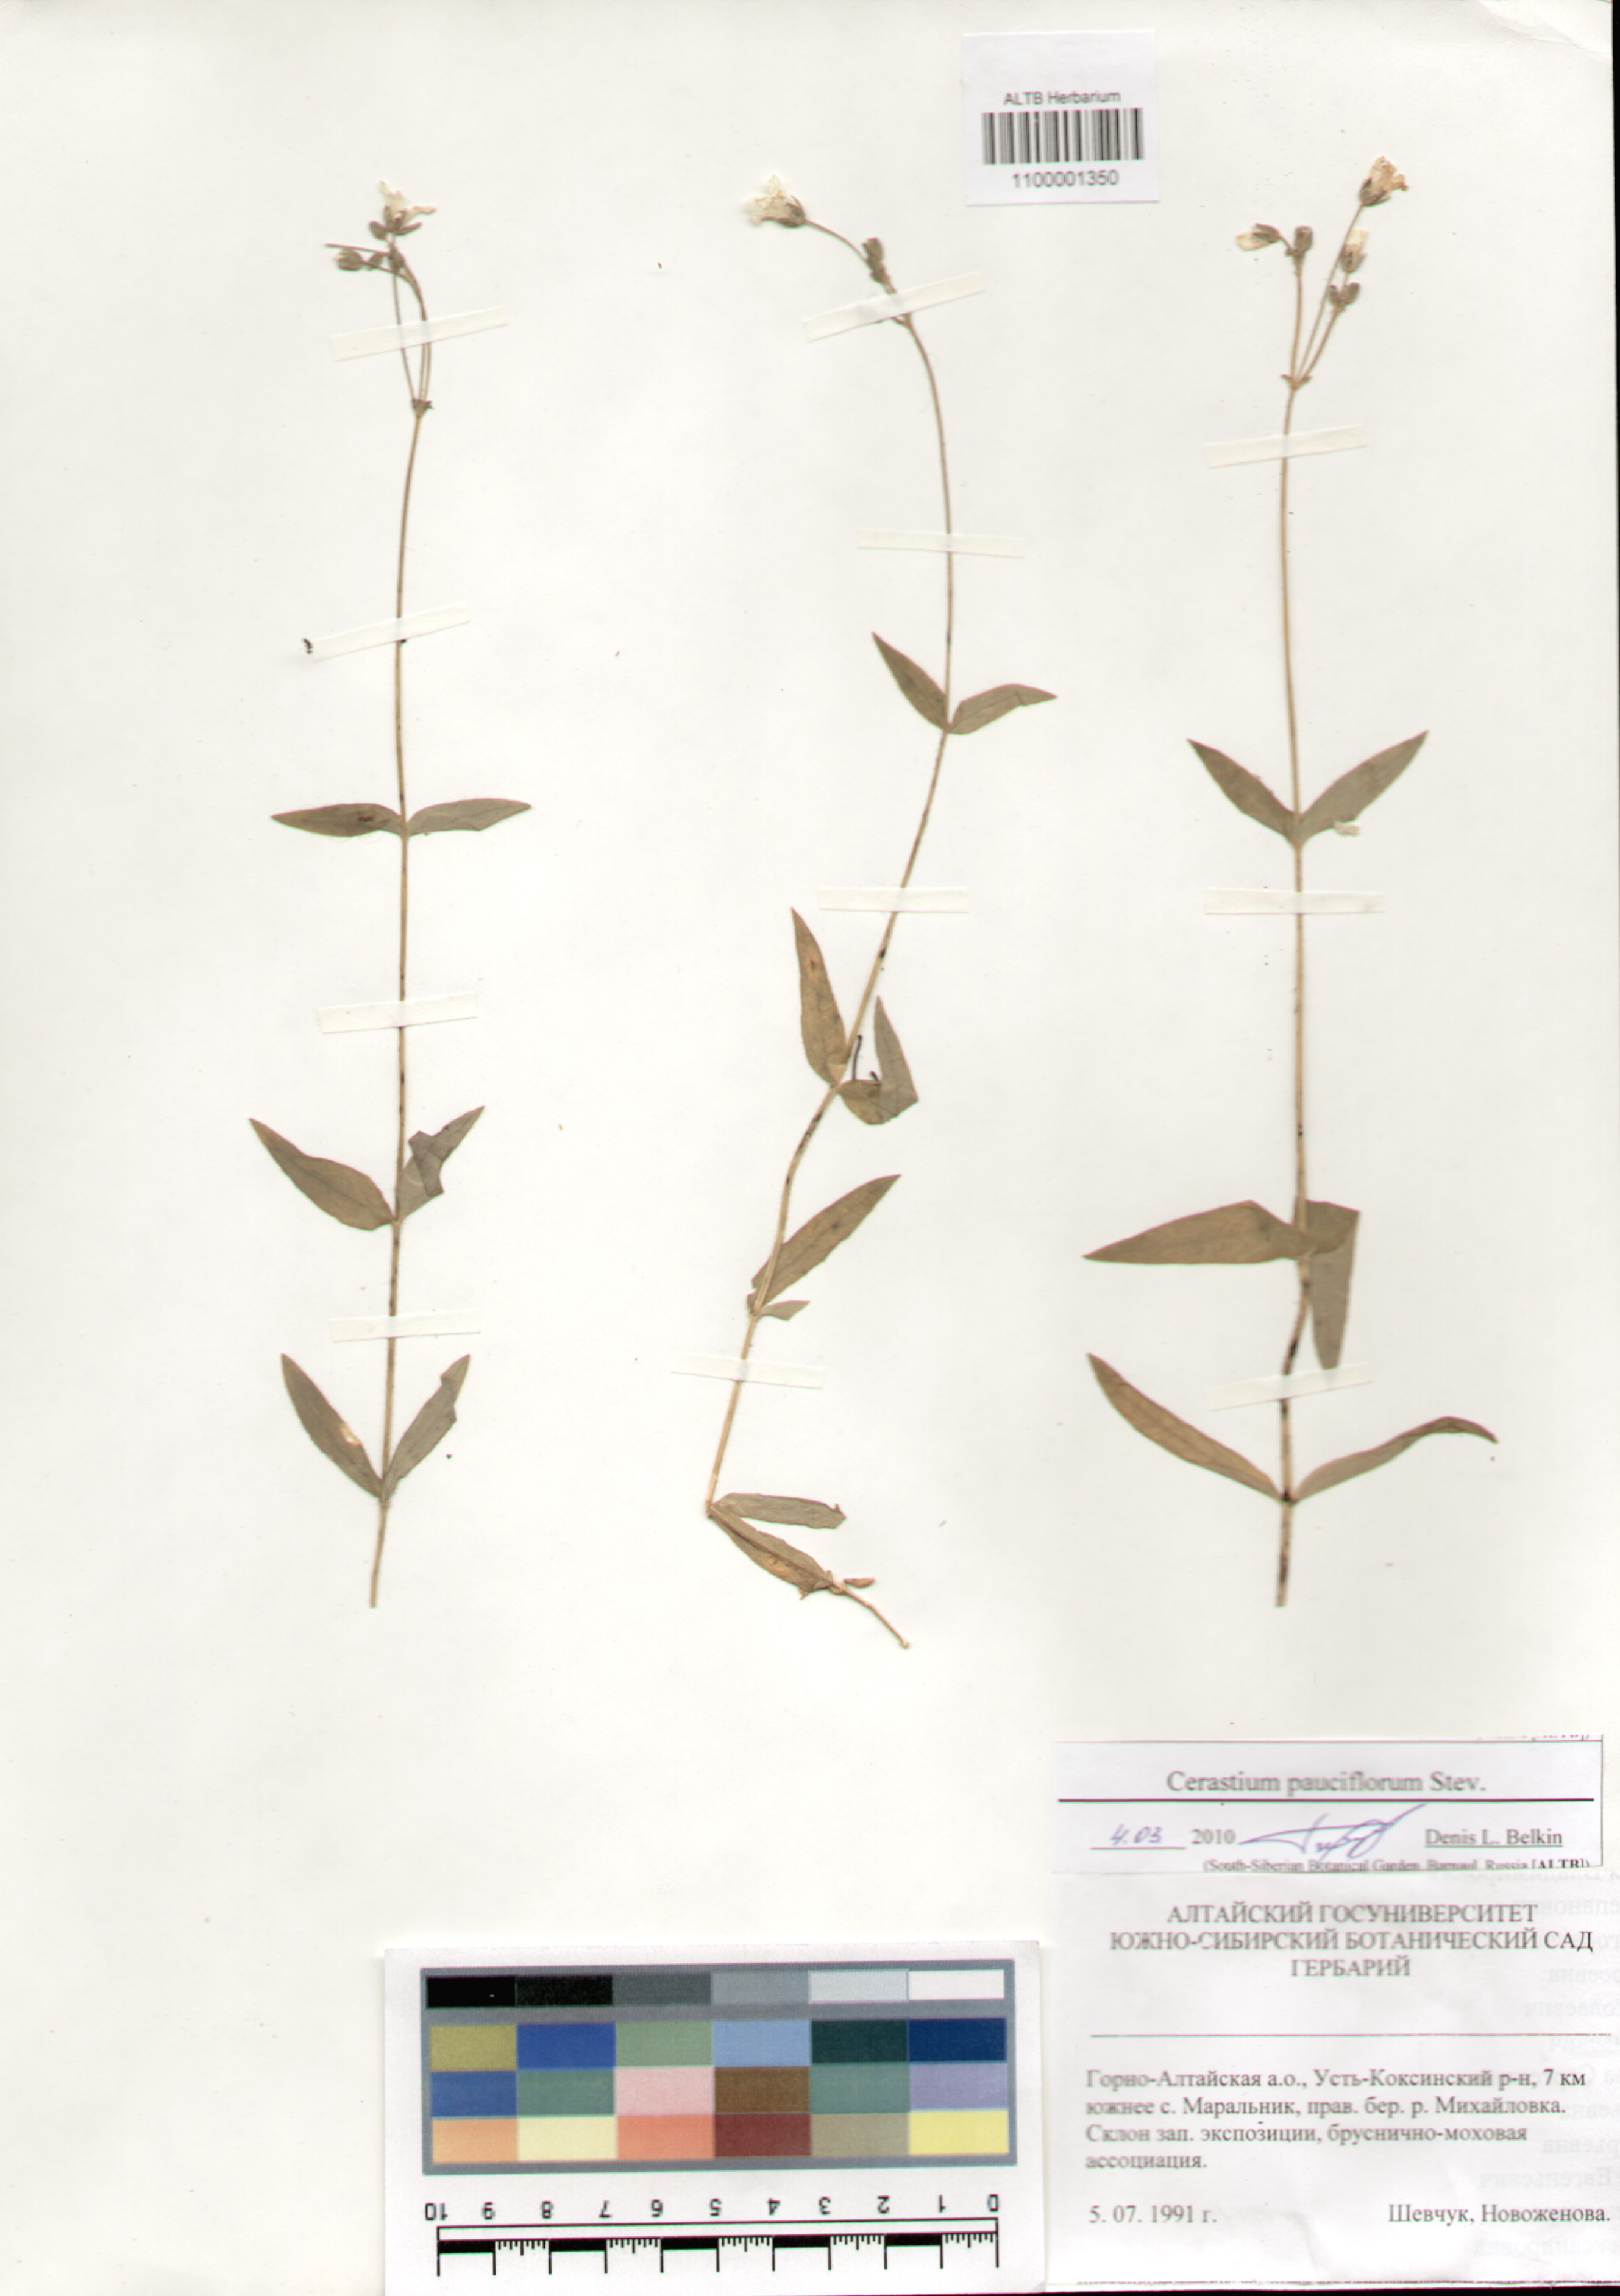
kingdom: Plantae
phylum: Tracheophyta
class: Magnoliopsida
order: Caryophyllales
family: Caryophyllaceae
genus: Cerastium
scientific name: Cerastium pauciflorum
